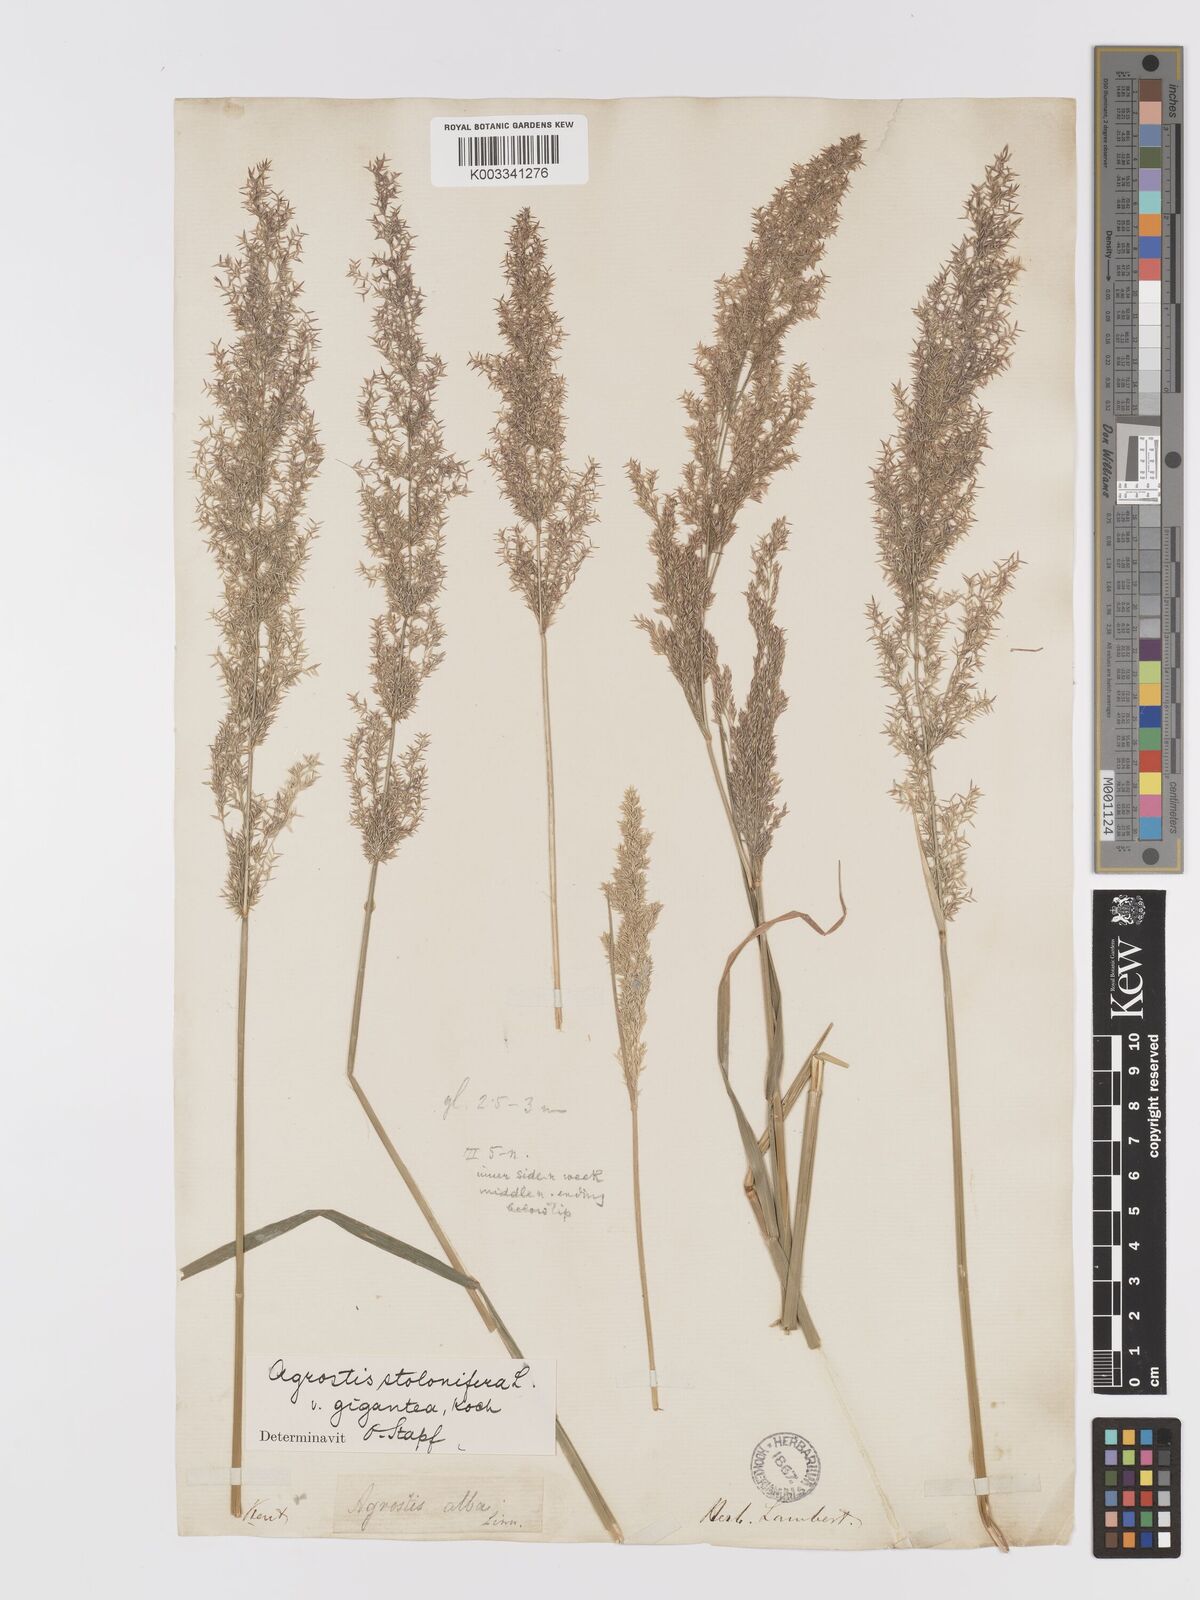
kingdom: Plantae
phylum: Tracheophyta
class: Liliopsida
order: Poales
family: Poaceae
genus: Agrostis
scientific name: Agrostis gigantea
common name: Black bent
